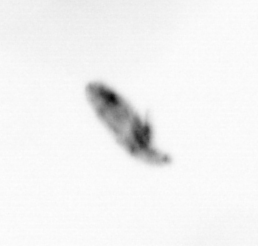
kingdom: Animalia
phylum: Arthropoda
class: Copepoda
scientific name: Copepoda
